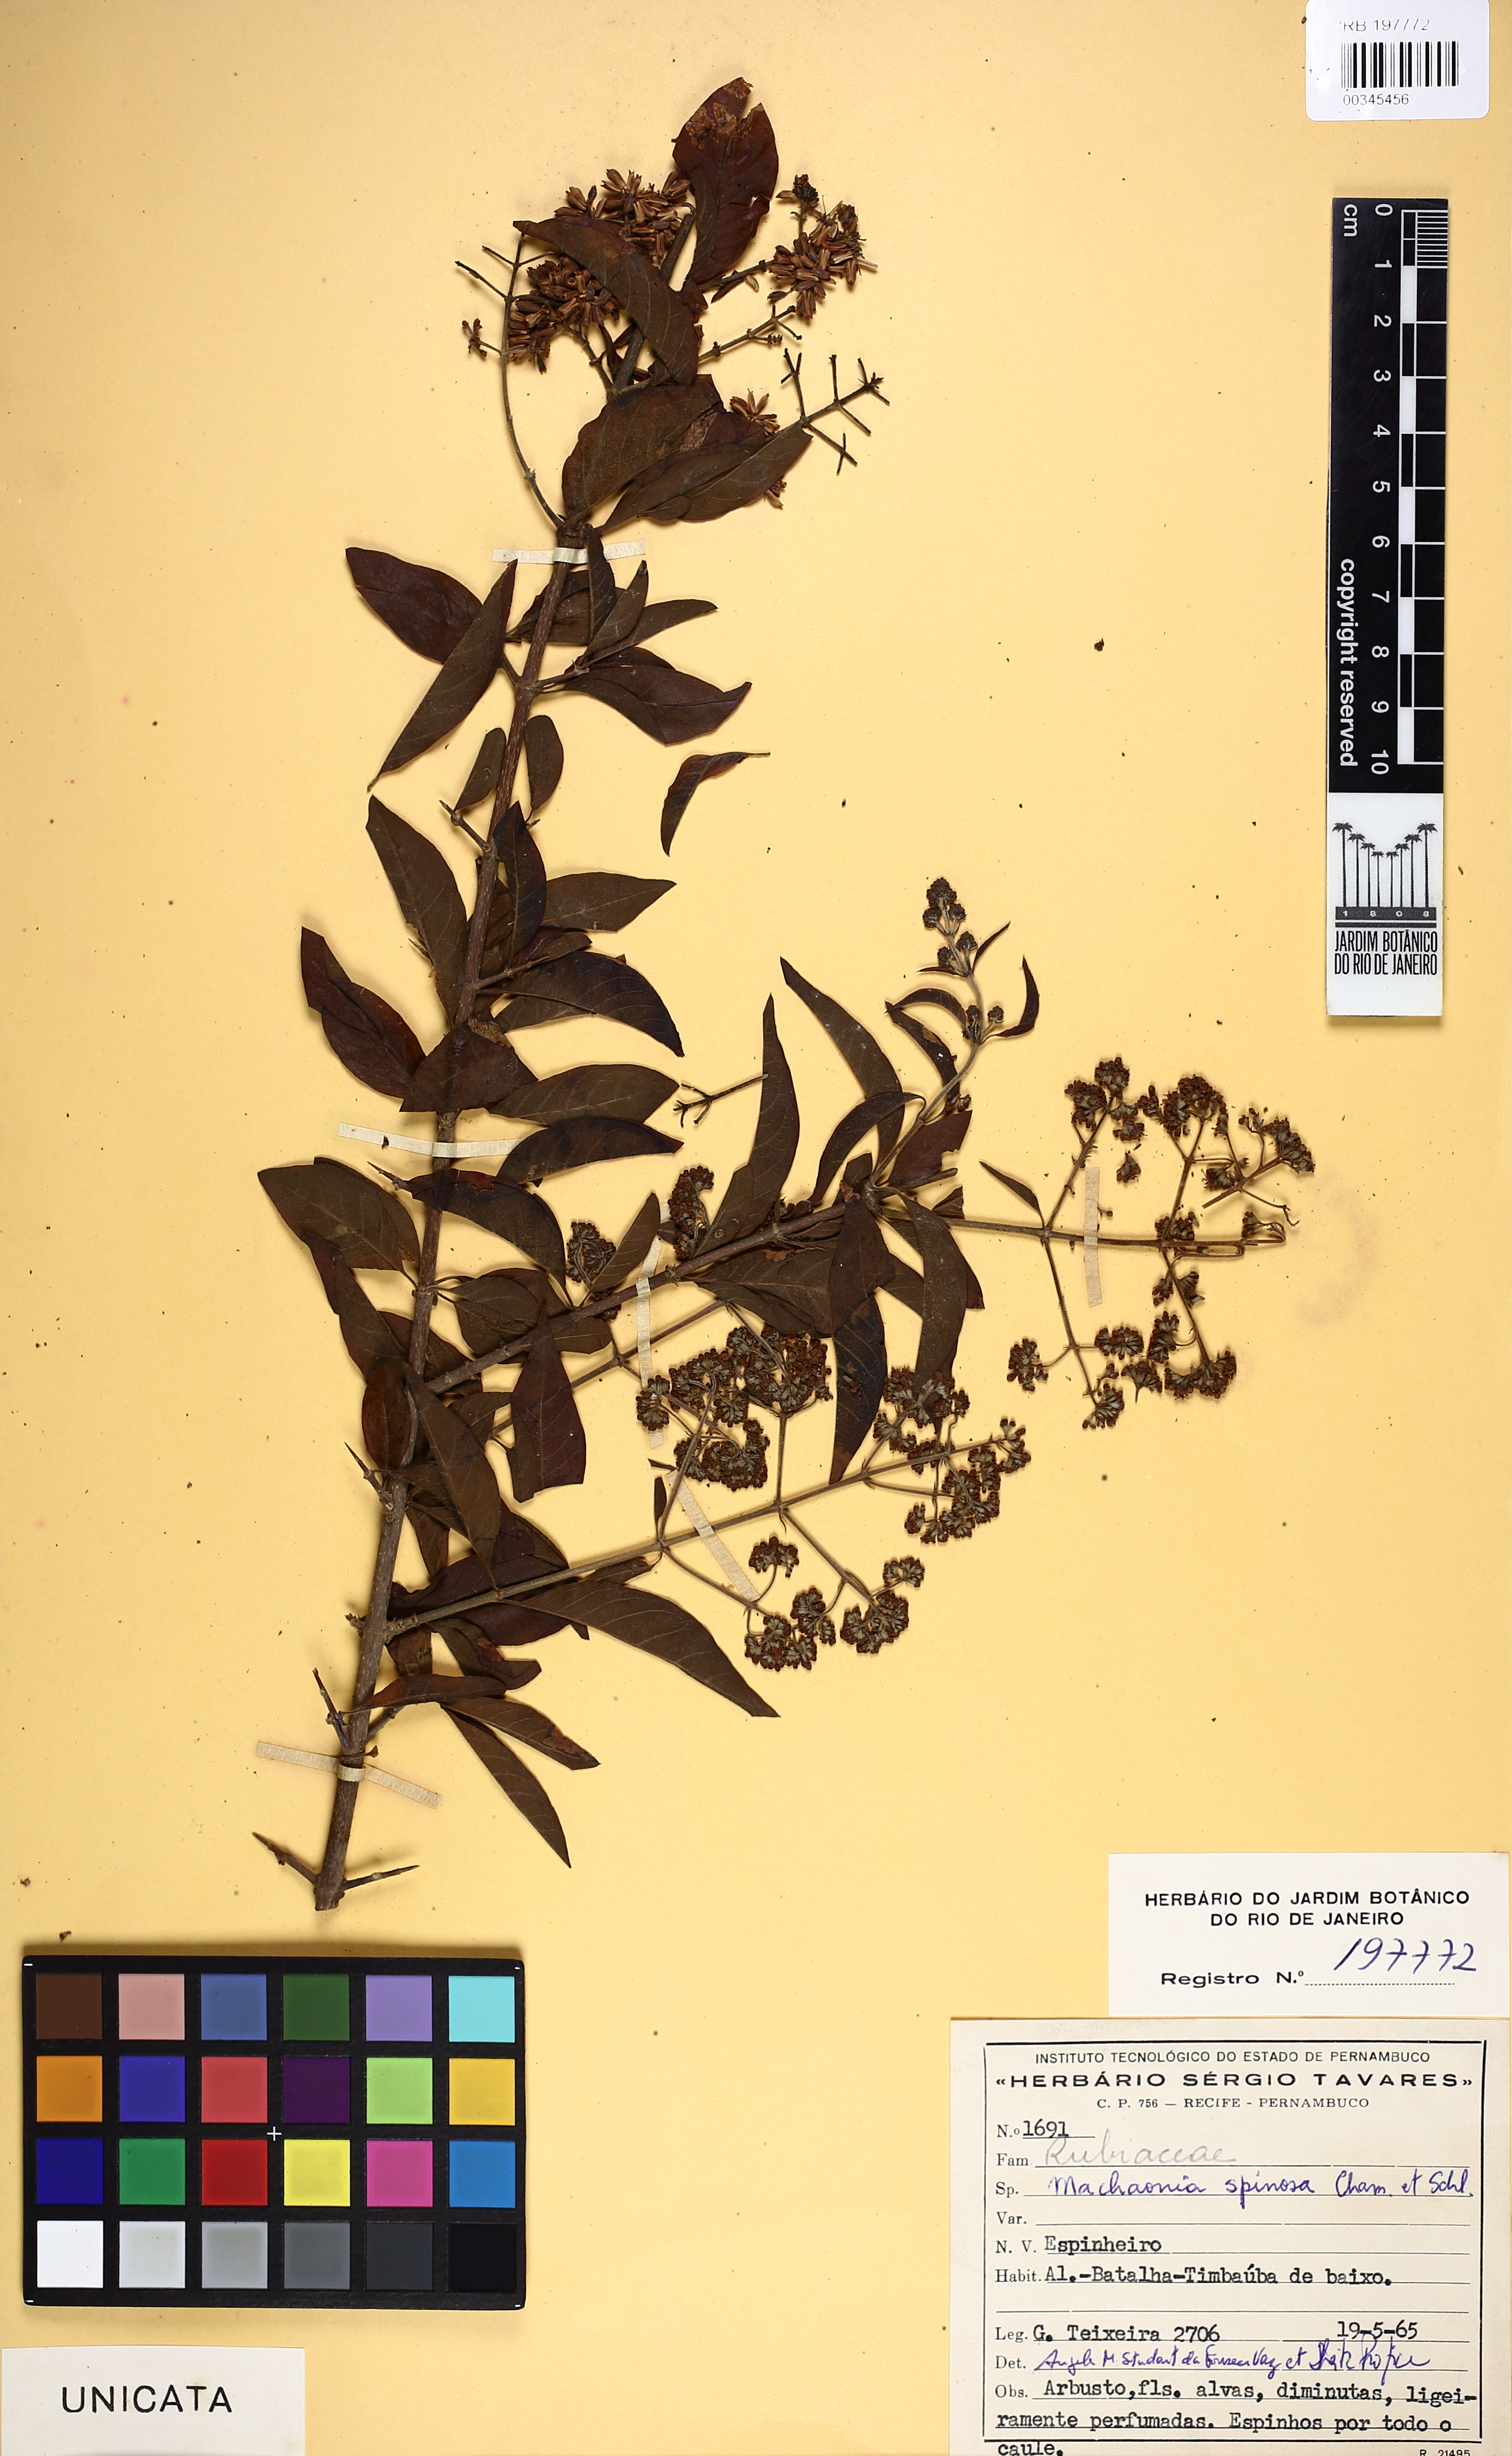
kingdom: Plantae
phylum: Tracheophyta
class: Magnoliopsida
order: Gentianales
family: Rubiaceae
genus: Machaonia
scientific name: Machaonia brasiliensis
